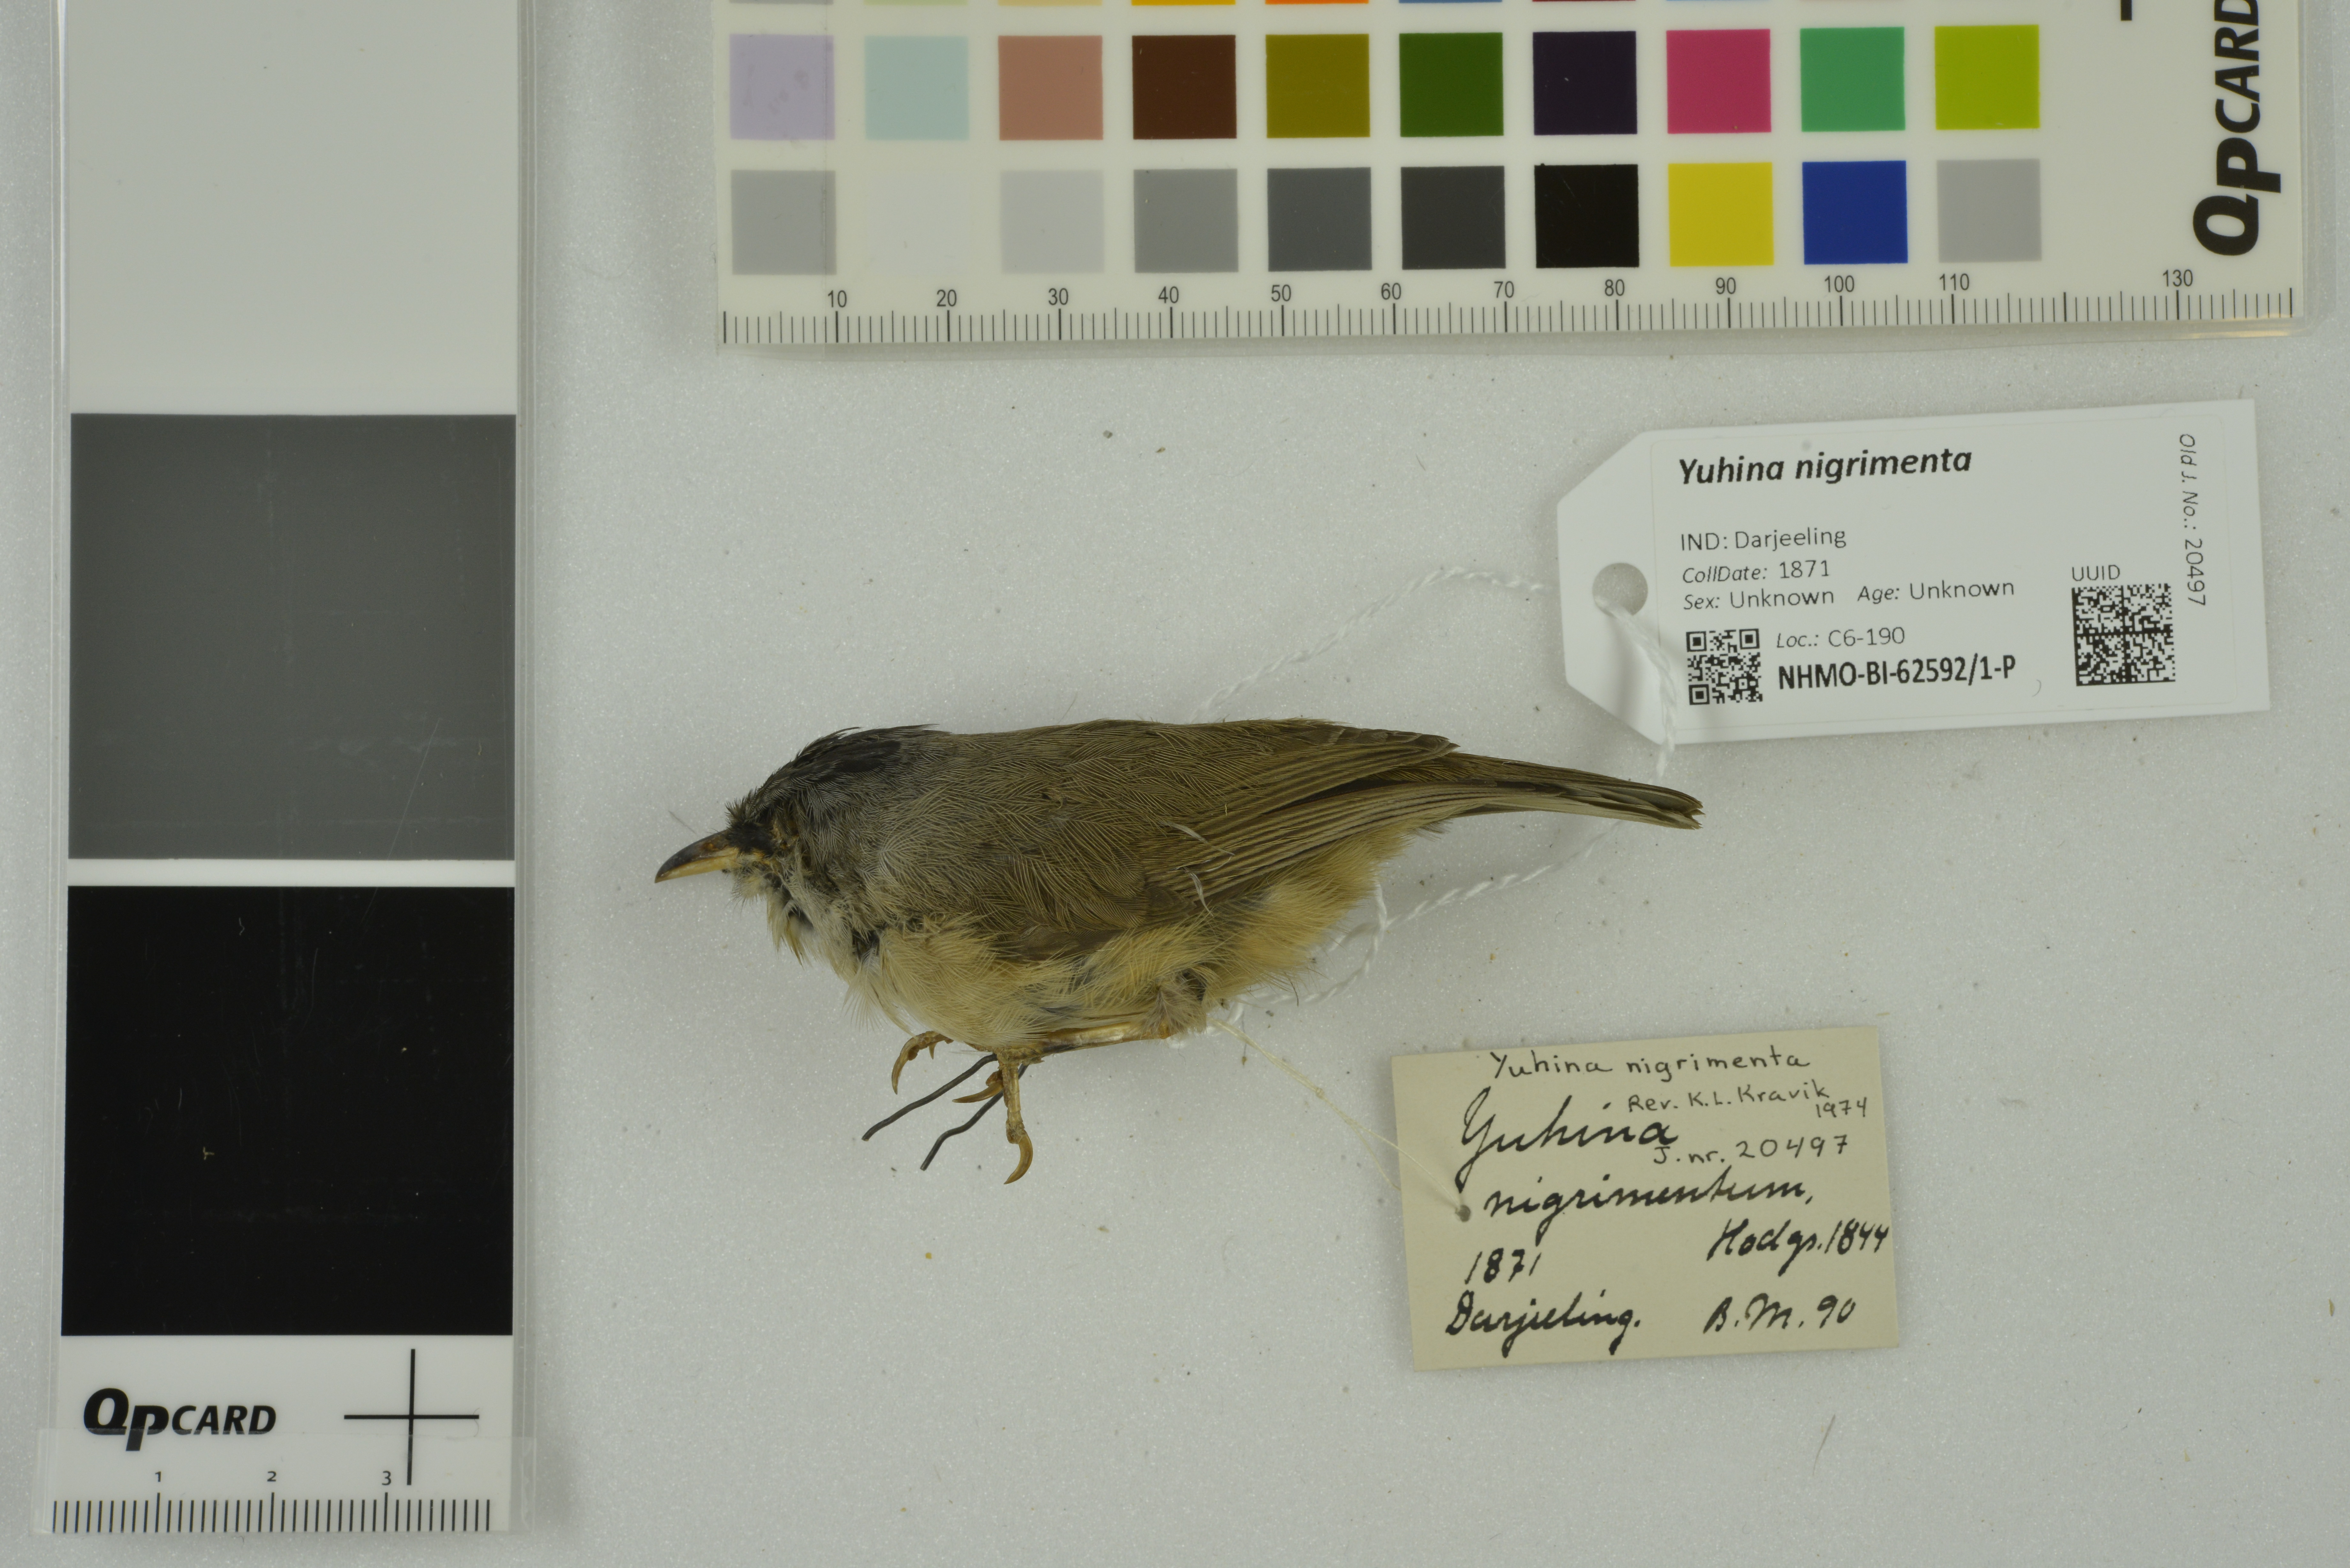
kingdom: Animalia
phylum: Chordata
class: Aves
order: Passeriformes
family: Zosteropidae
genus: Yuhina
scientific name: Yuhina nigrimenta
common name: Black-chinned yuhina
